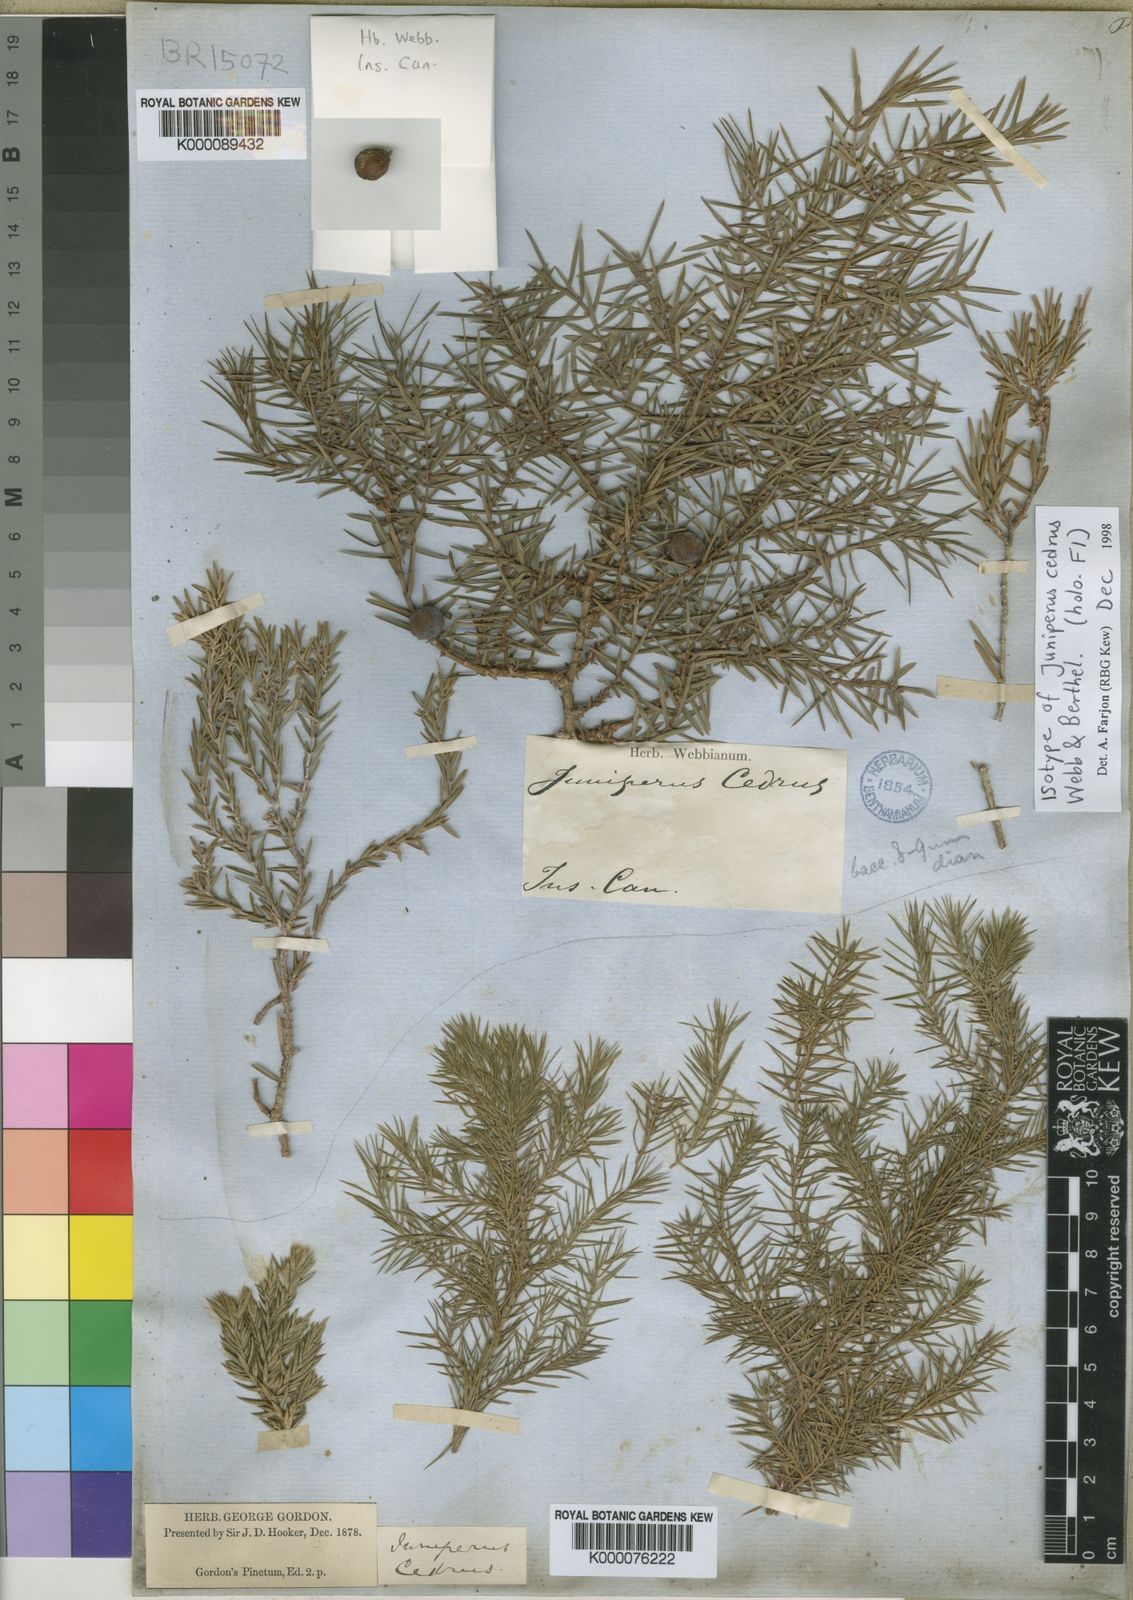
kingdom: Plantae
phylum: Tracheophyta
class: Pinopsida
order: Pinales
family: Cupressaceae
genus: Juniperus
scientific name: Juniperus cedrus
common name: Canary islands juniper
